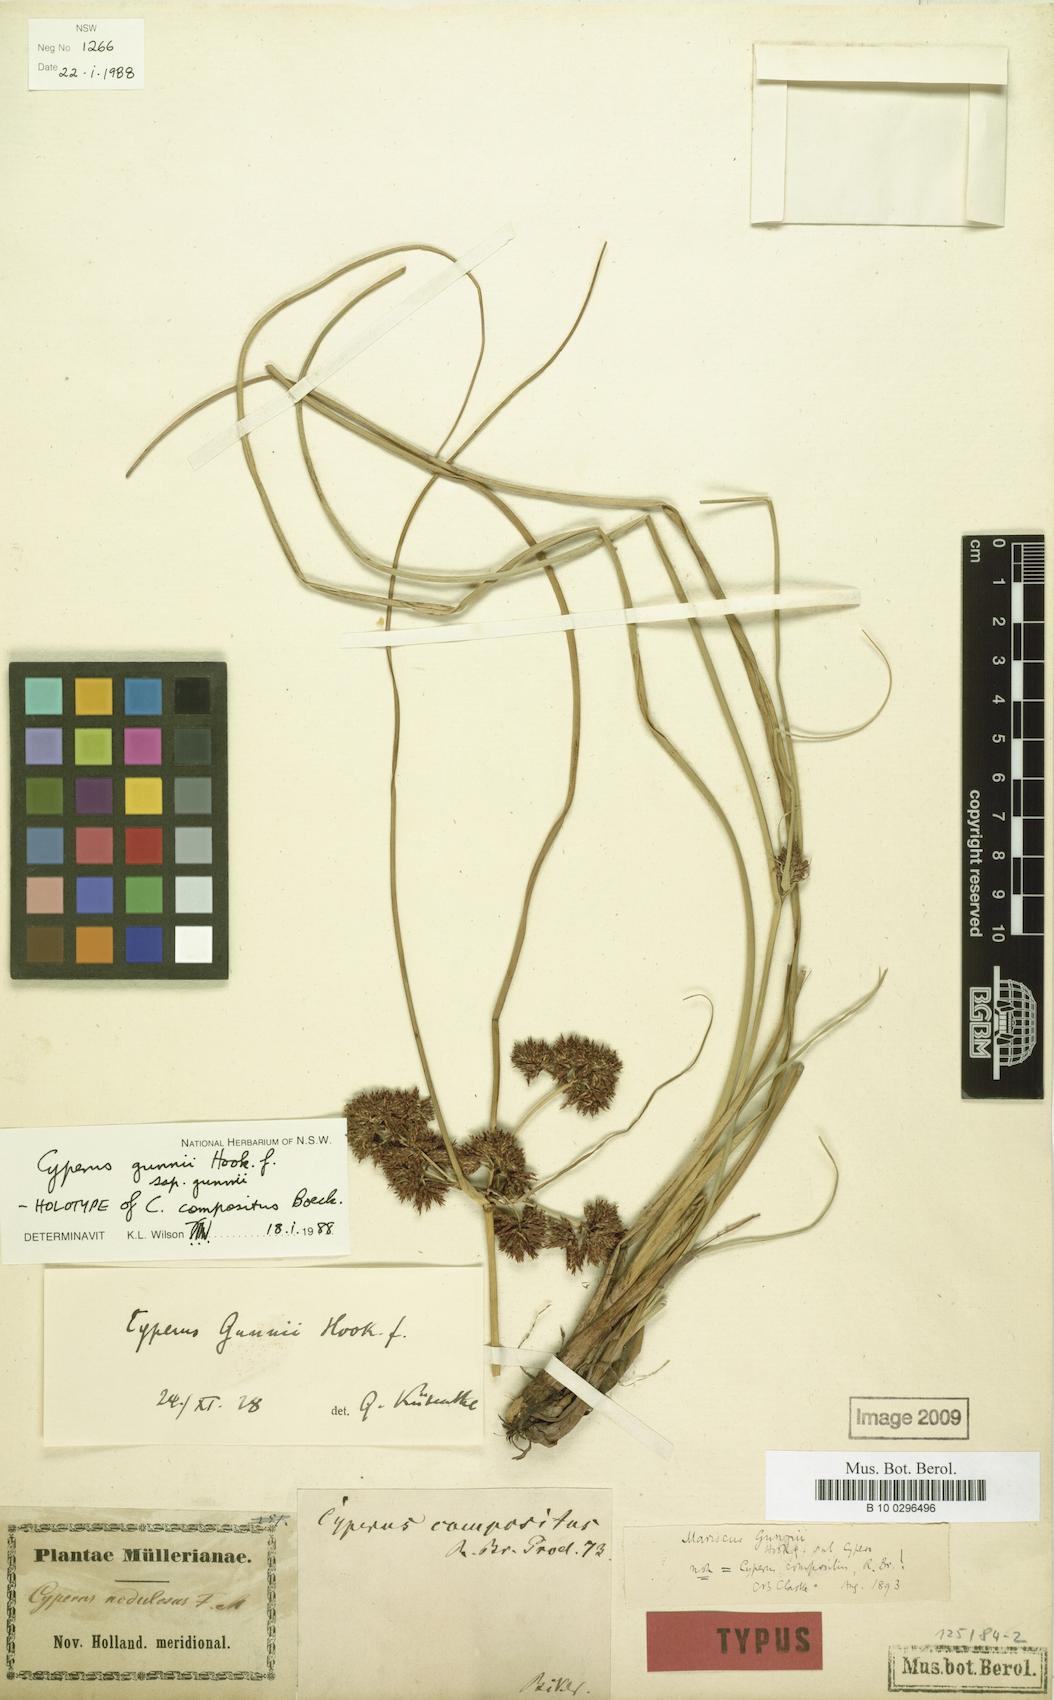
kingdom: Plantae
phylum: Tracheophyta
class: Liliopsida
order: Poales
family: Cyperaceae
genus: Cyperus
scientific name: Cyperus gunnii
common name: Flecked flat-sedge
